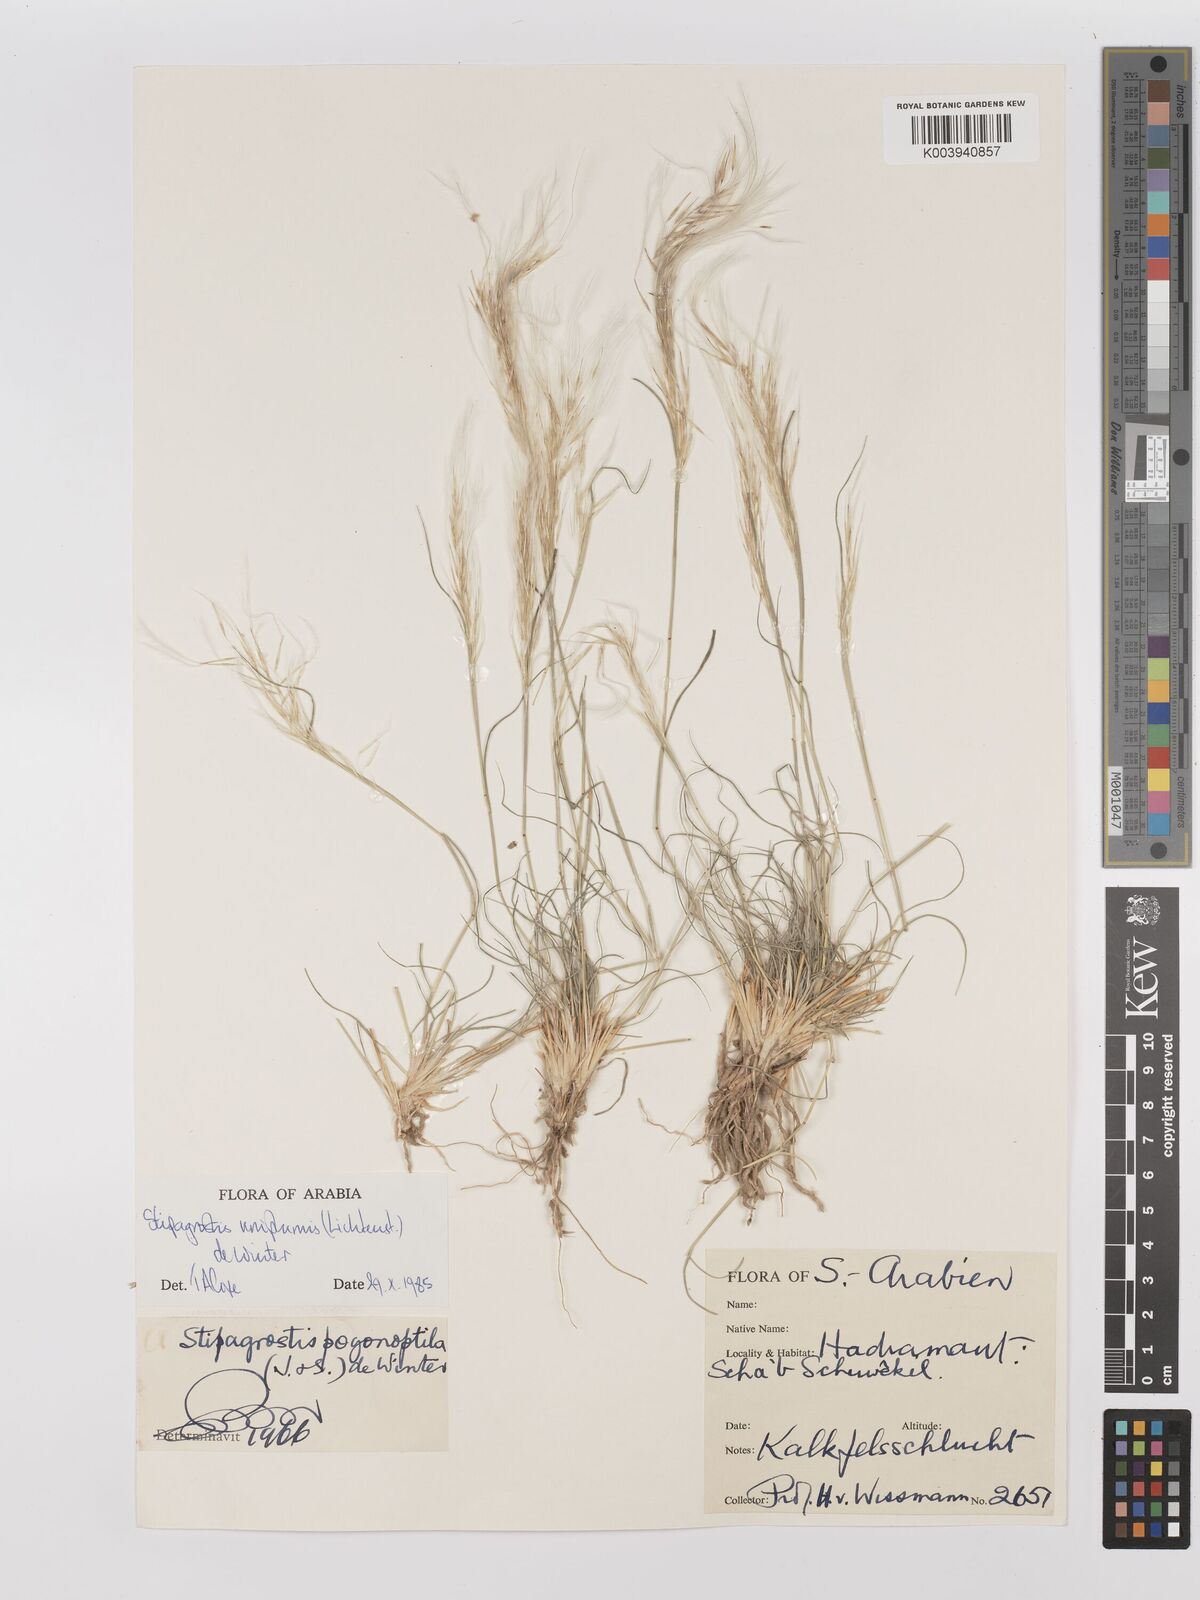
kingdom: Plantae
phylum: Tracheophyta
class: Liliopsida
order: Poales
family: Poaceae
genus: Stipagrostis
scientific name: Stipagrostis uniplumis
